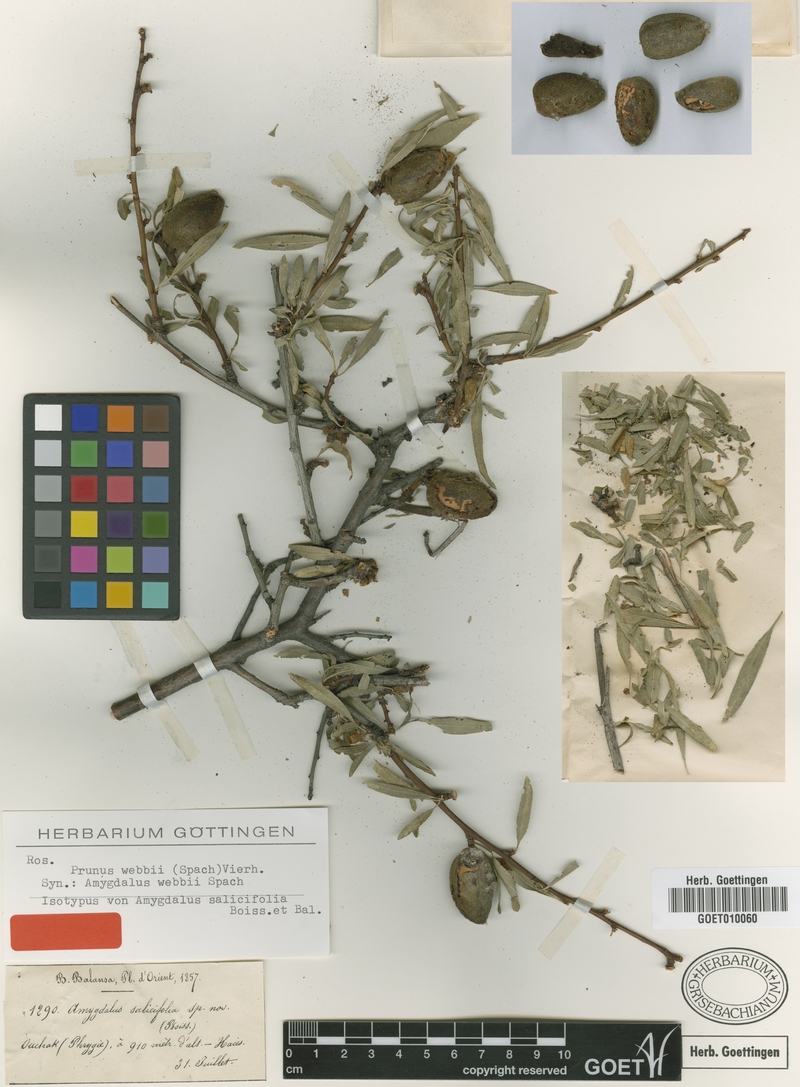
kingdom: Plantae
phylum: Tracheophyta
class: Magnoliopsida
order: Rosales
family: Rosaceae
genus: Prunus
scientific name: Prunus webbii
